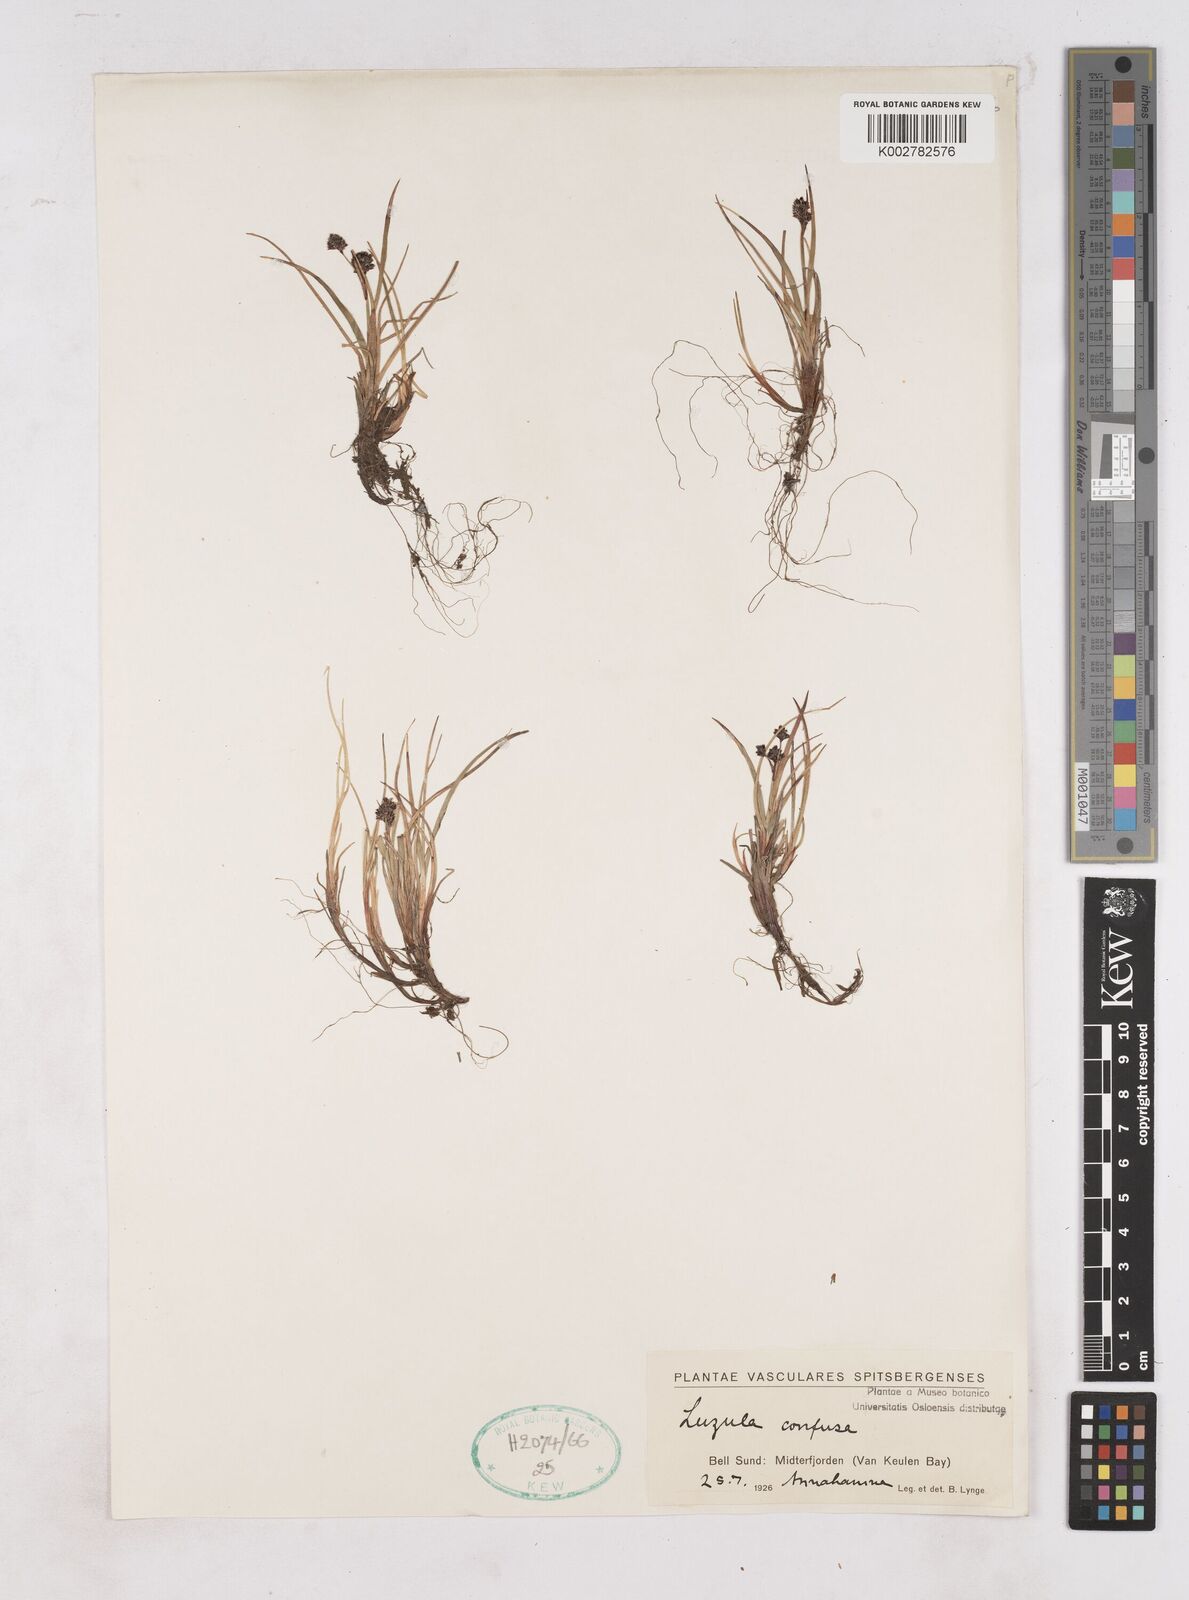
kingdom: Plantae
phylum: Tracheophyta
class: Liliopsida
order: Poales
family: Juncaceae
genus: Luzula
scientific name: Luzula confusa
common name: Northern wood rush
